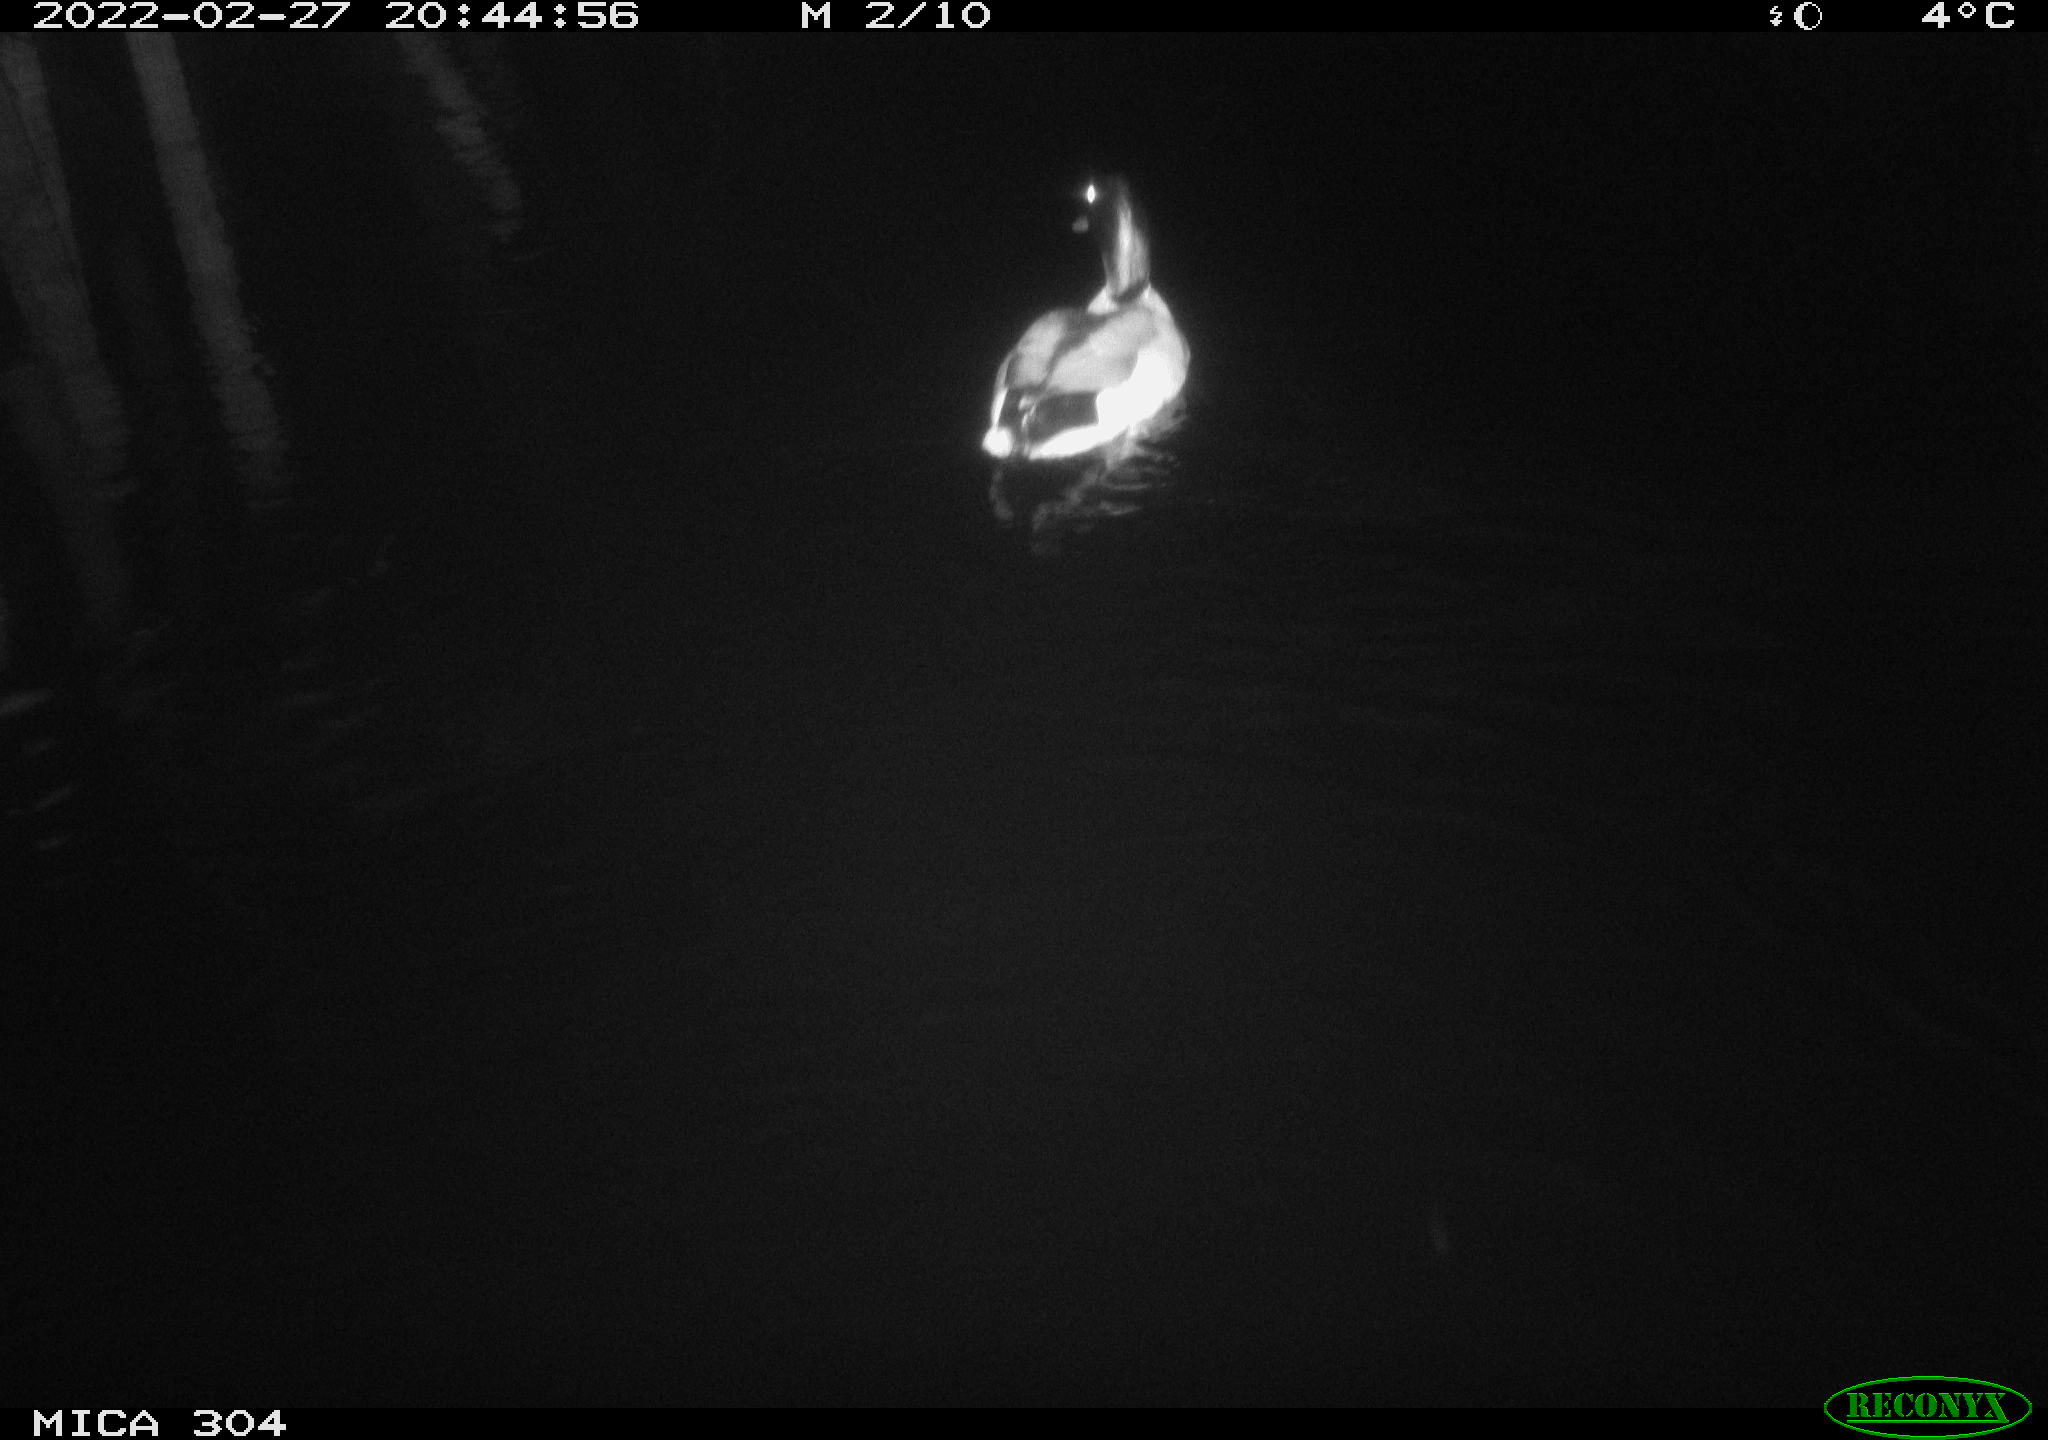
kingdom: Animalia
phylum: Chordata
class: Aves
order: Anseriformes
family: Anatidae
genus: Anas
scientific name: Anas platyrhynchos
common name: Mallard
